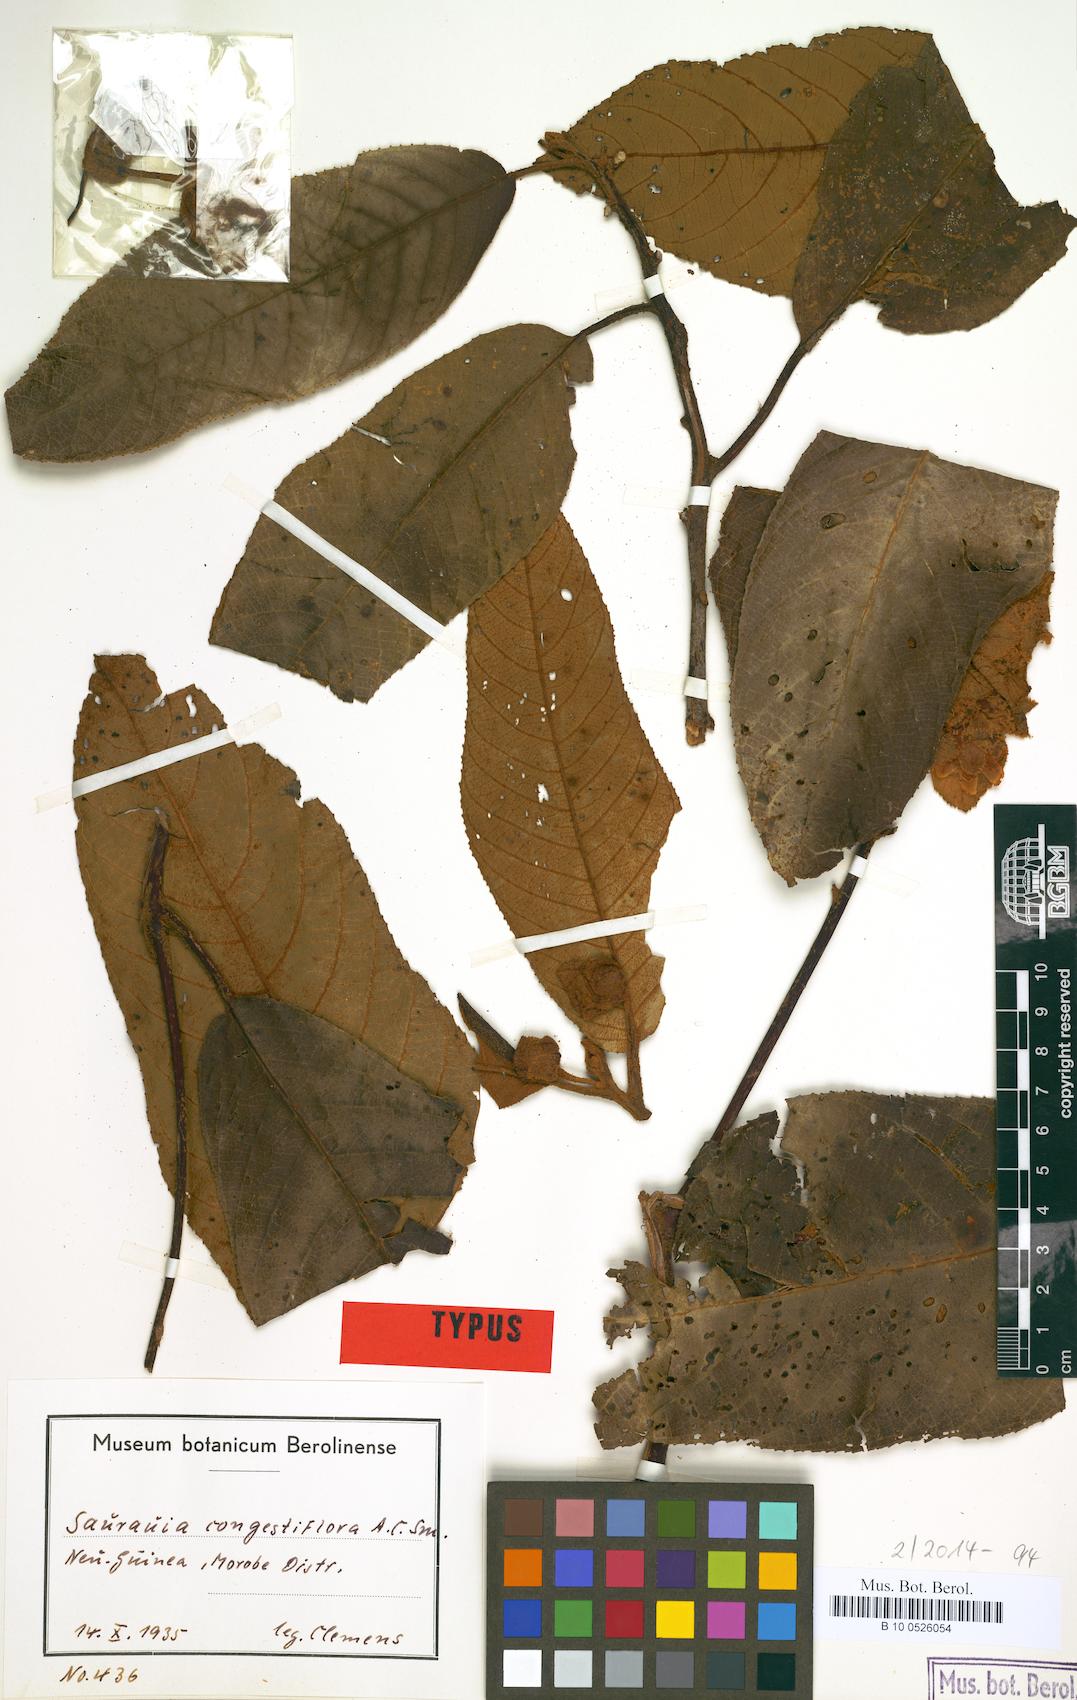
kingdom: Plantae
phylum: Tracheophyta
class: Magnoliopsida
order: Ericales
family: Actinidiaceae
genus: Saurauia
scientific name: Saurauia congestiflora
